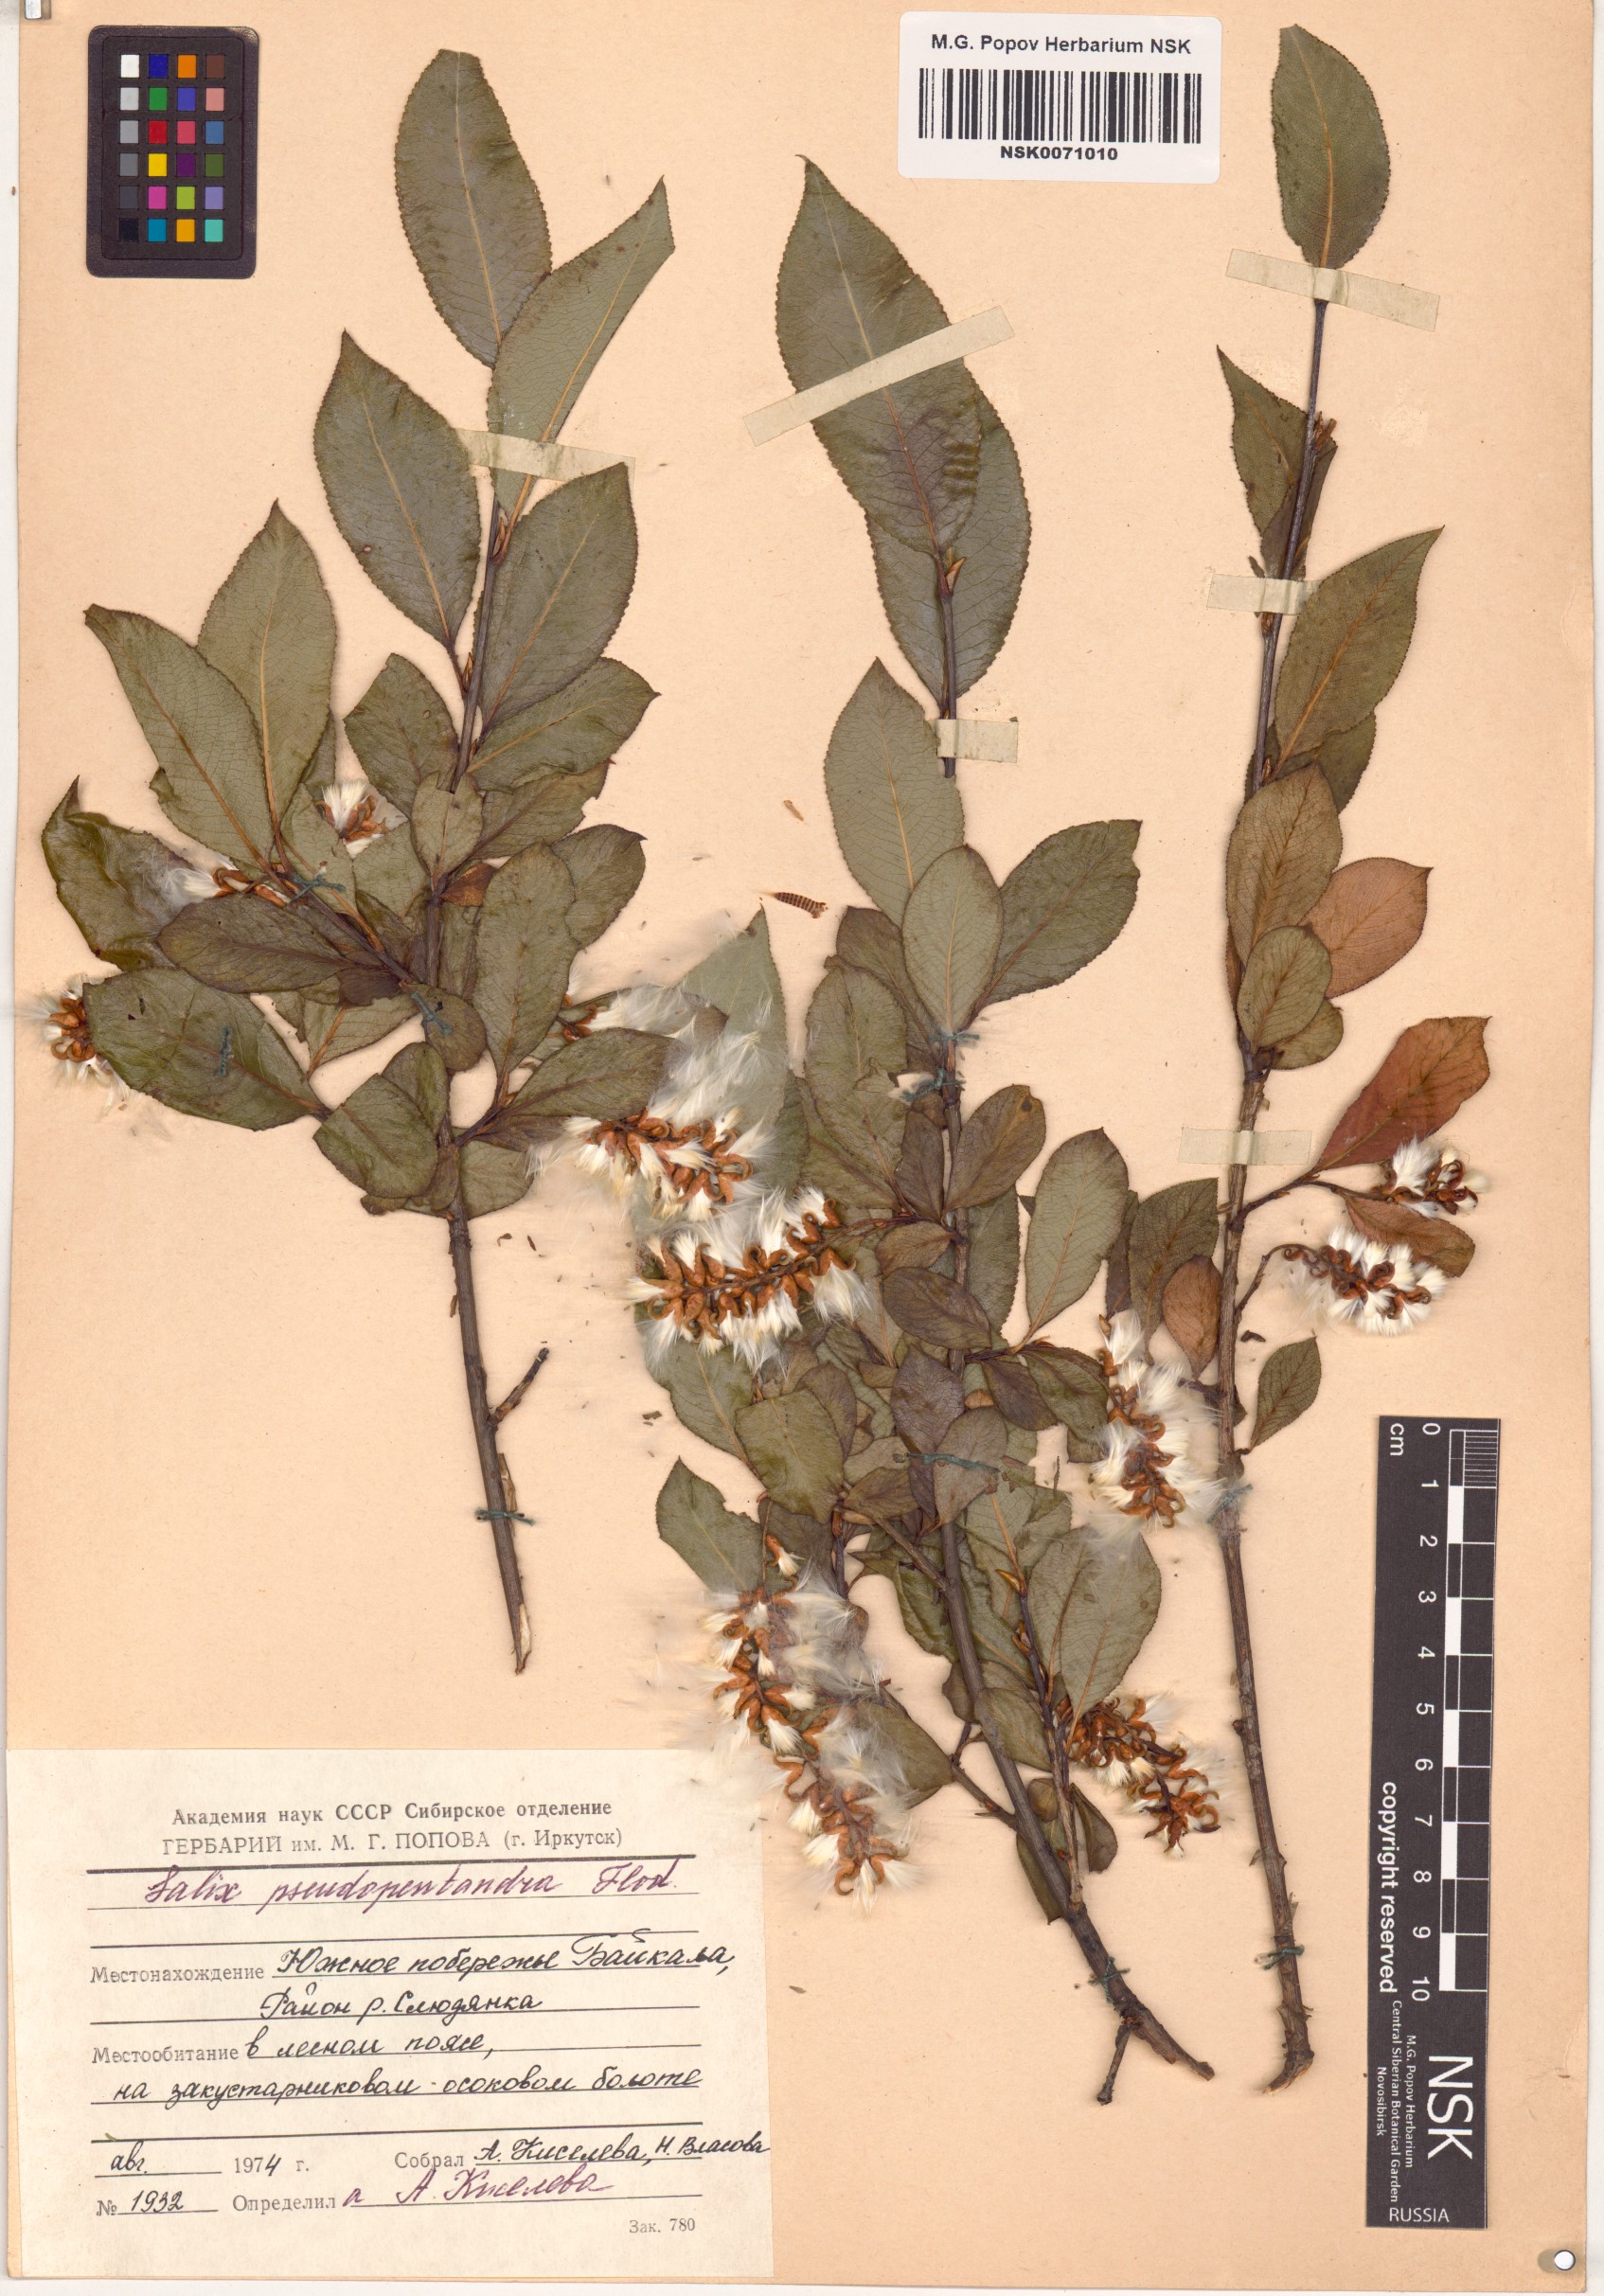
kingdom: Plantae
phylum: Tracheophyta
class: Magnoliopsida
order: Malpighiales
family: Salicaceae
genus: Salix
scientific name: Salix pseudopentandra
